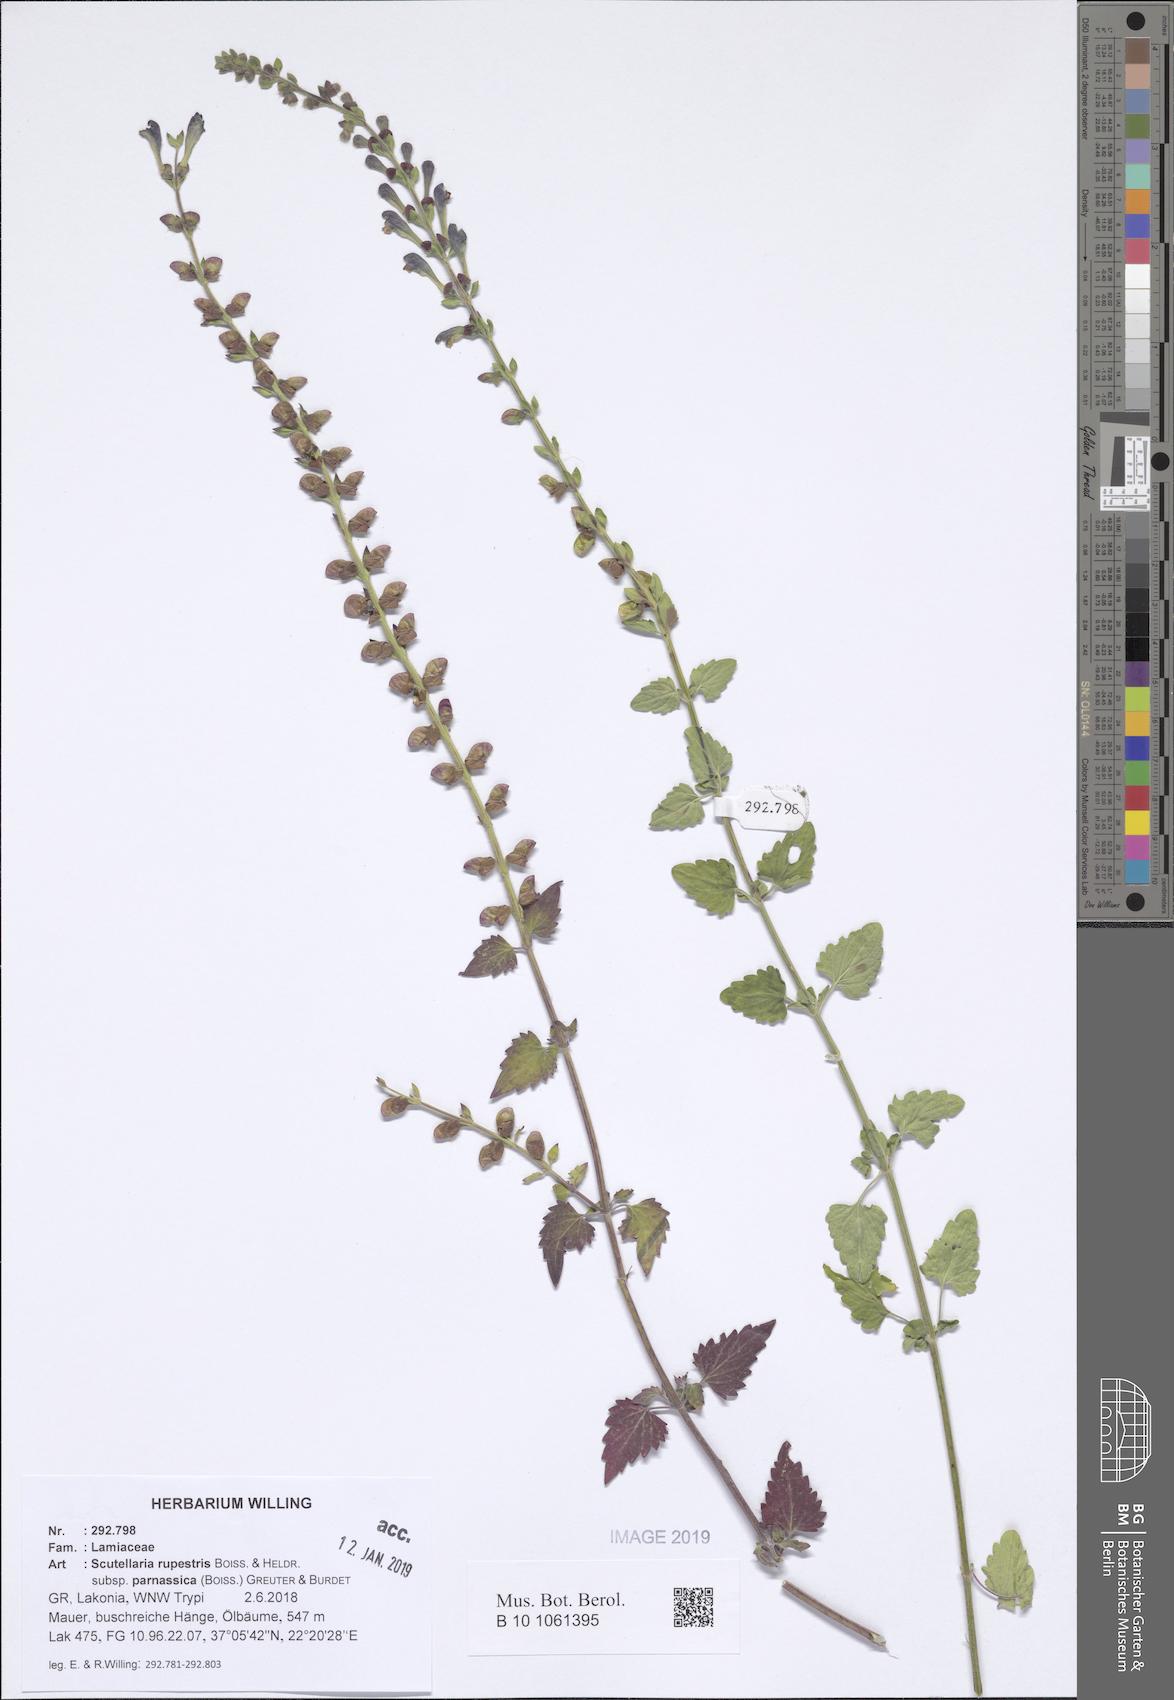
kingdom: Plantae
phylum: Tracheophyta
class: Magnoliopsida
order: Lamiales
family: Lamiaceae
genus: Scutellaria
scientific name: Scutellaria rupestris
